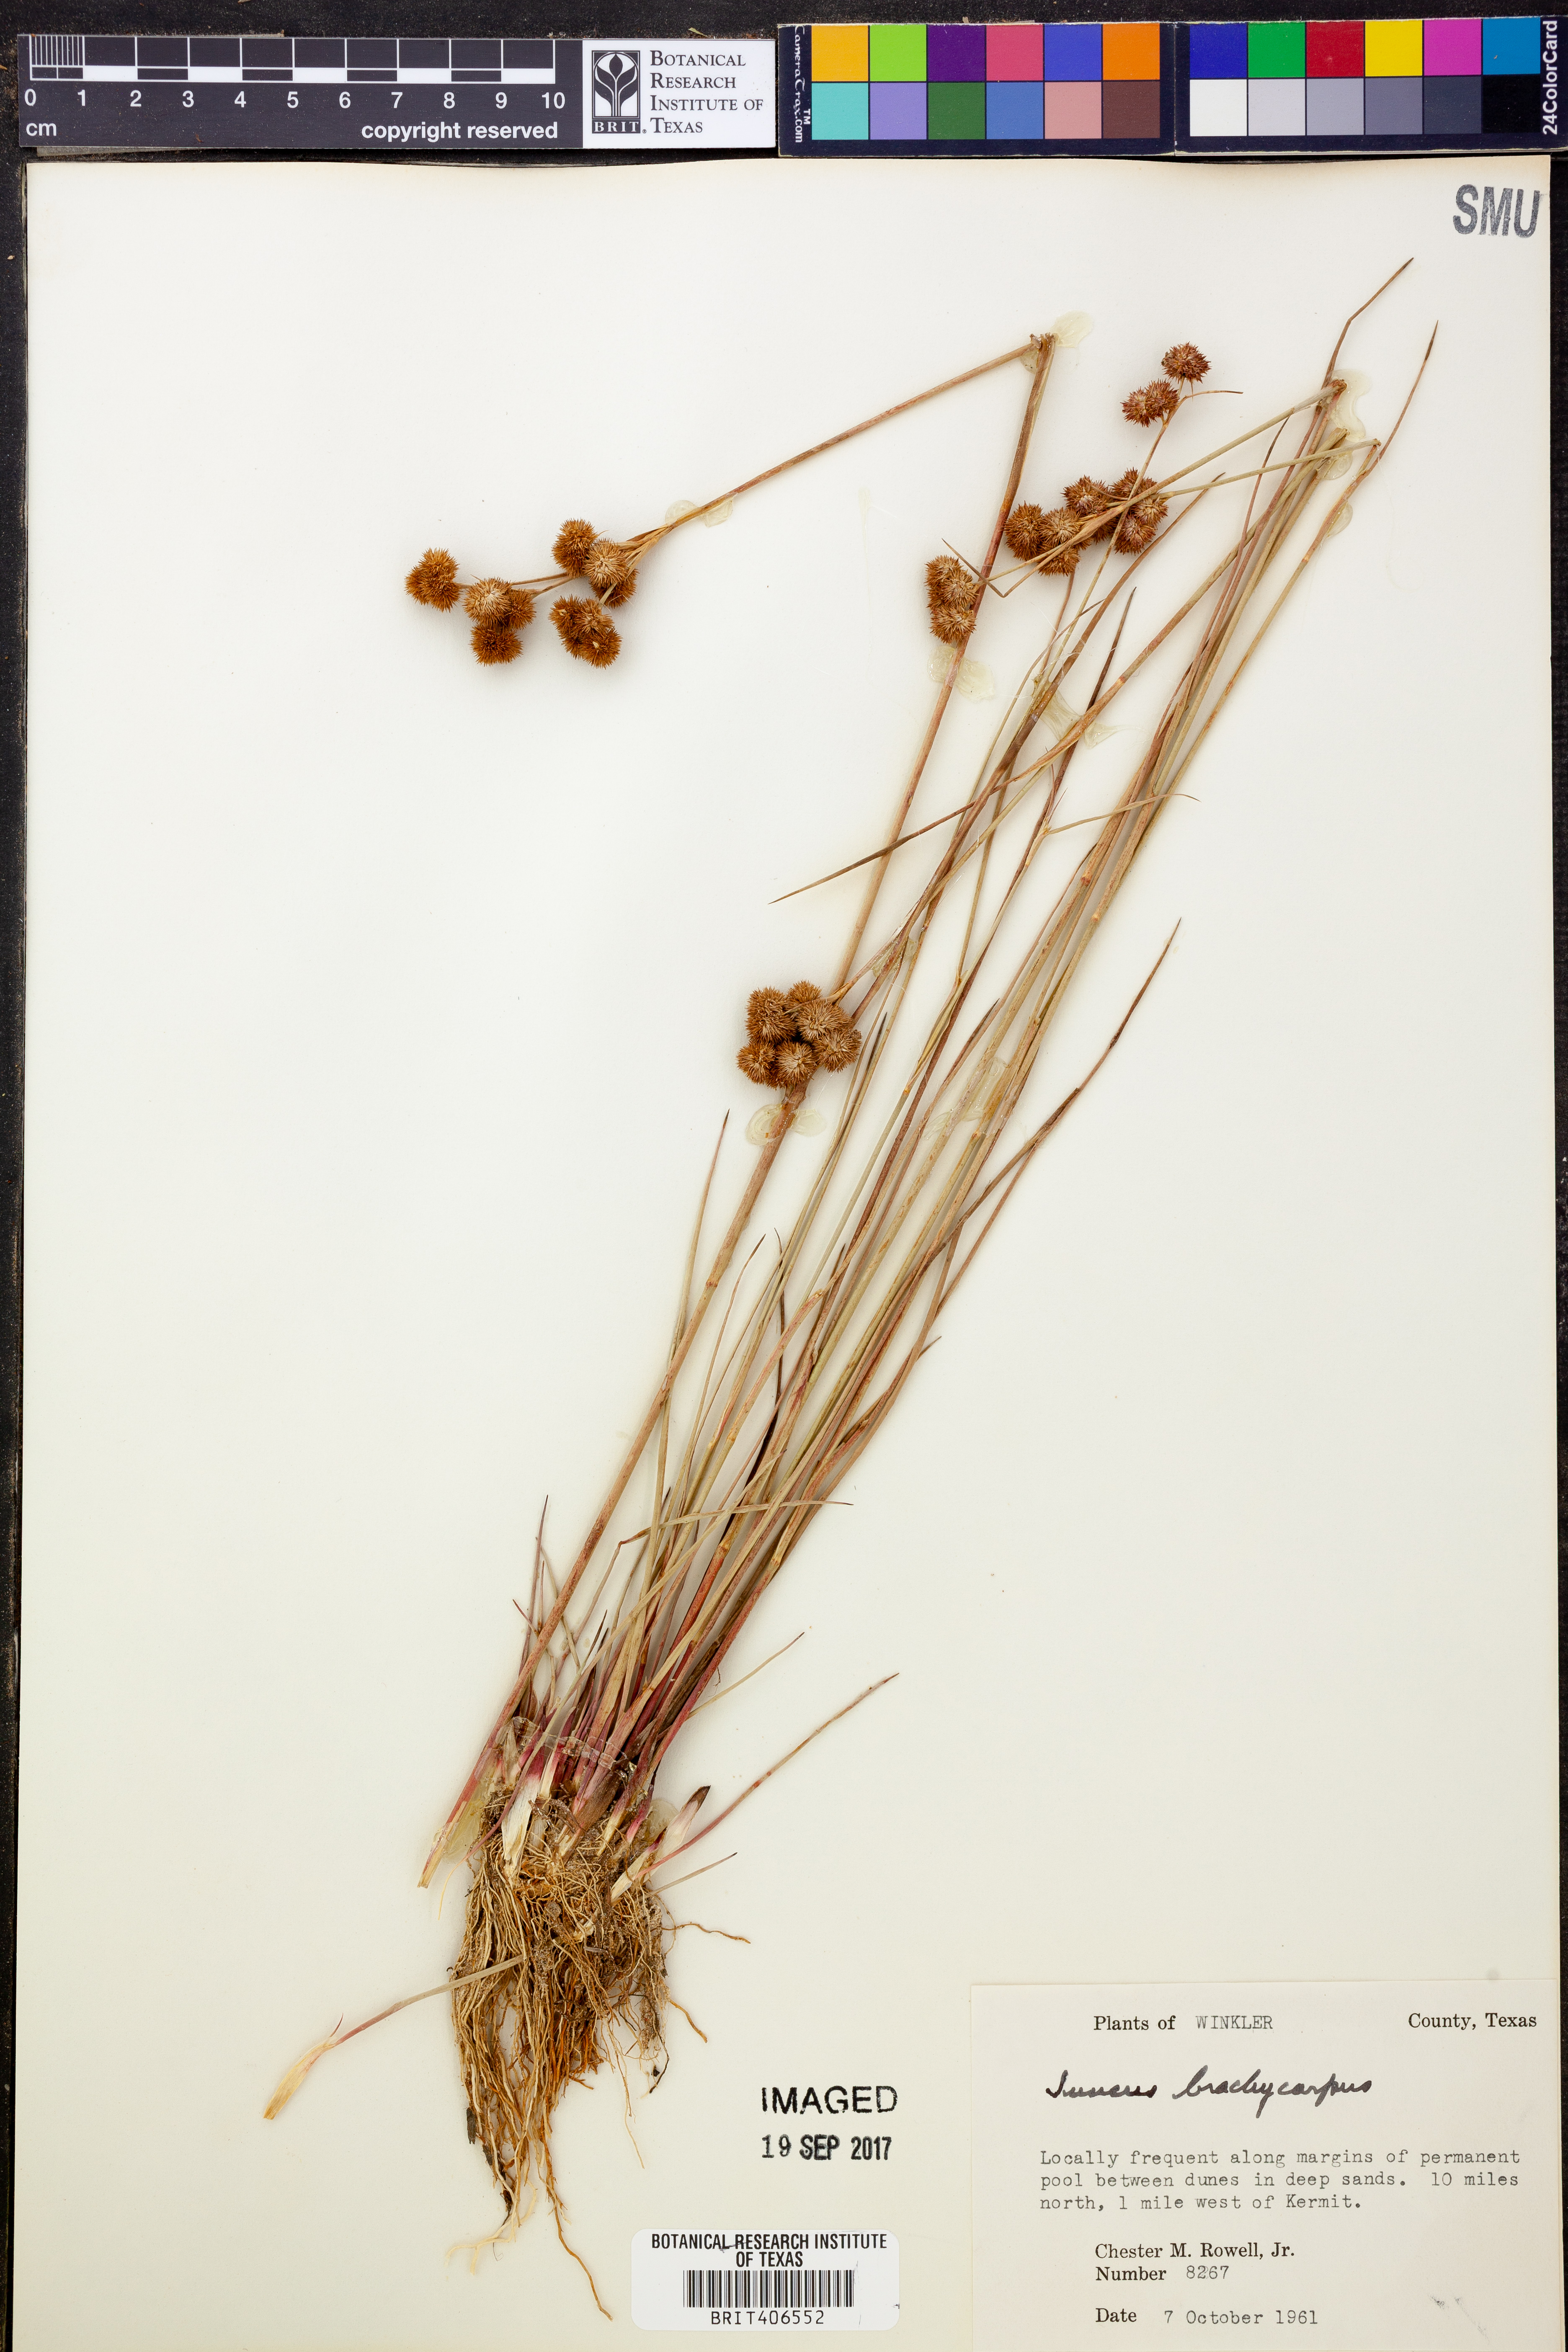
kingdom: Plantae
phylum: Tracheophyta
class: Liliopsida
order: Poales
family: Juncaceae
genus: Juncus
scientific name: Juncus brachycarpus
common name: Shore rush
